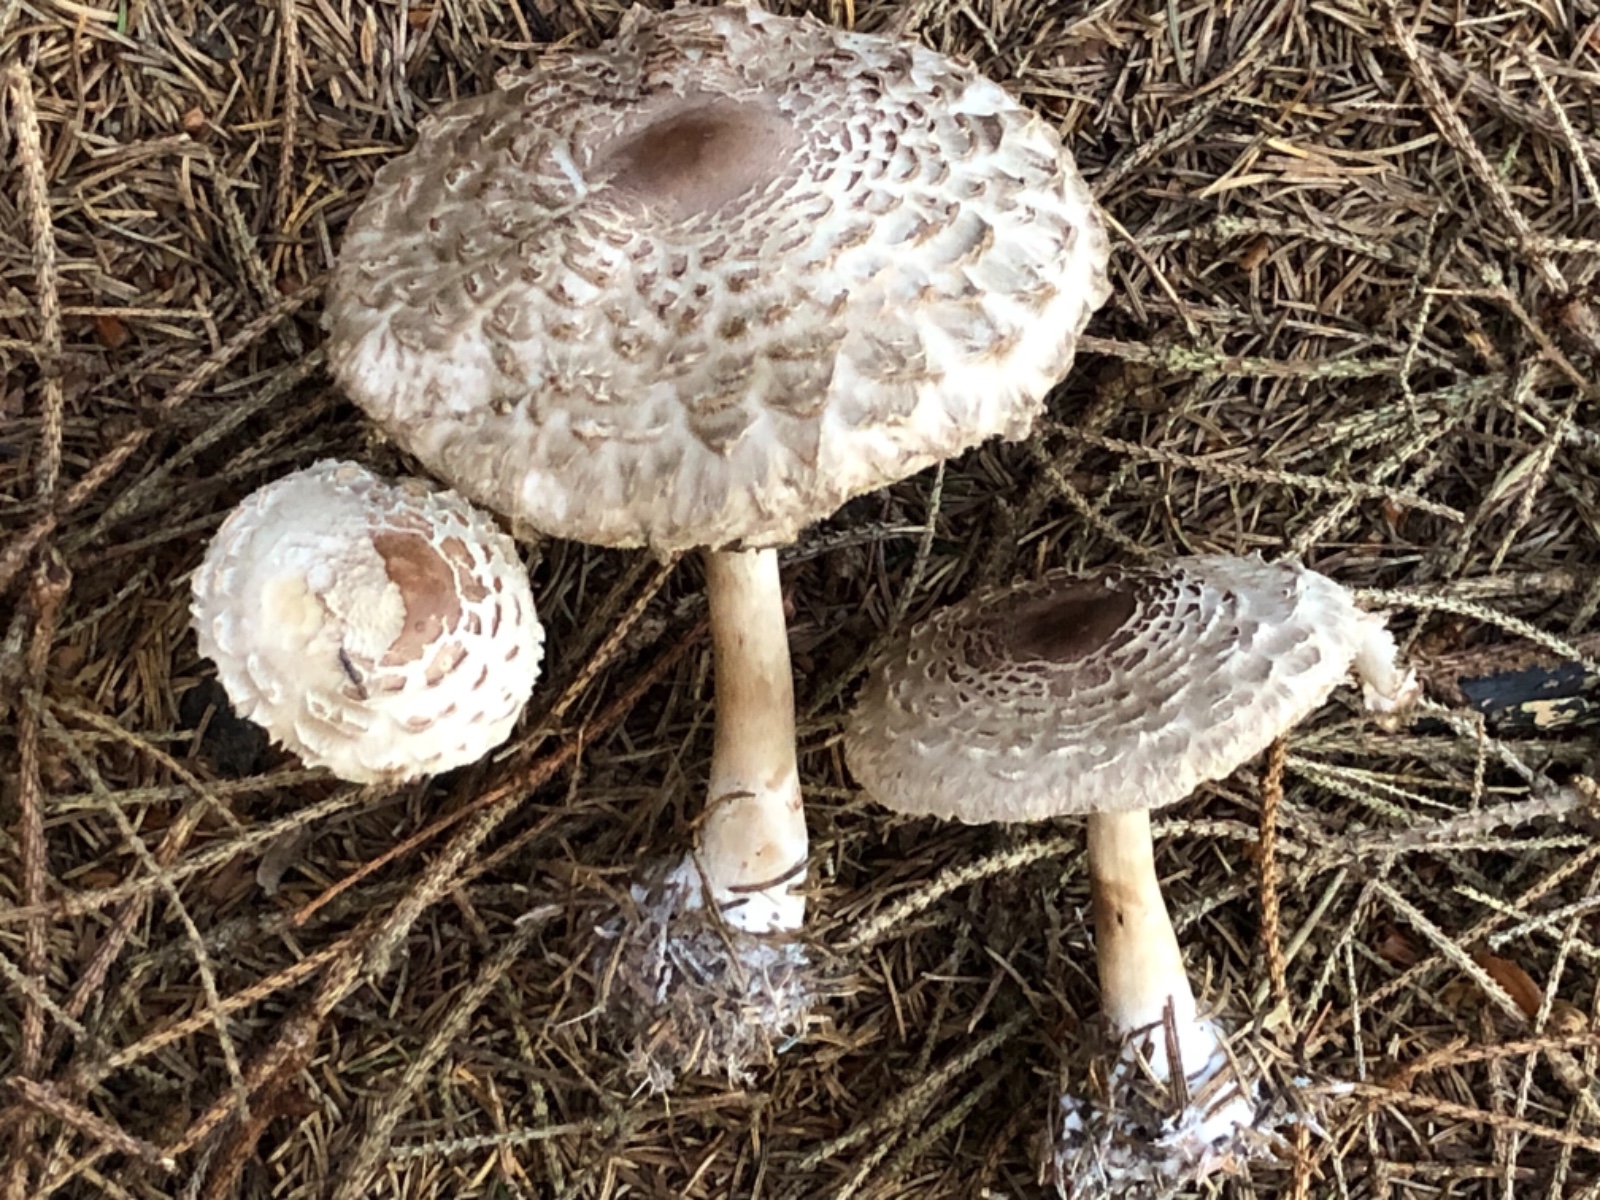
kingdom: Fungi
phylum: Basidiomycota
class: Agaricomycetes
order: Agaricales
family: Agaricaceae
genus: Chlorophyllum
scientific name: Chlorophyllum olivieri
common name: almindelig rabarberhat
